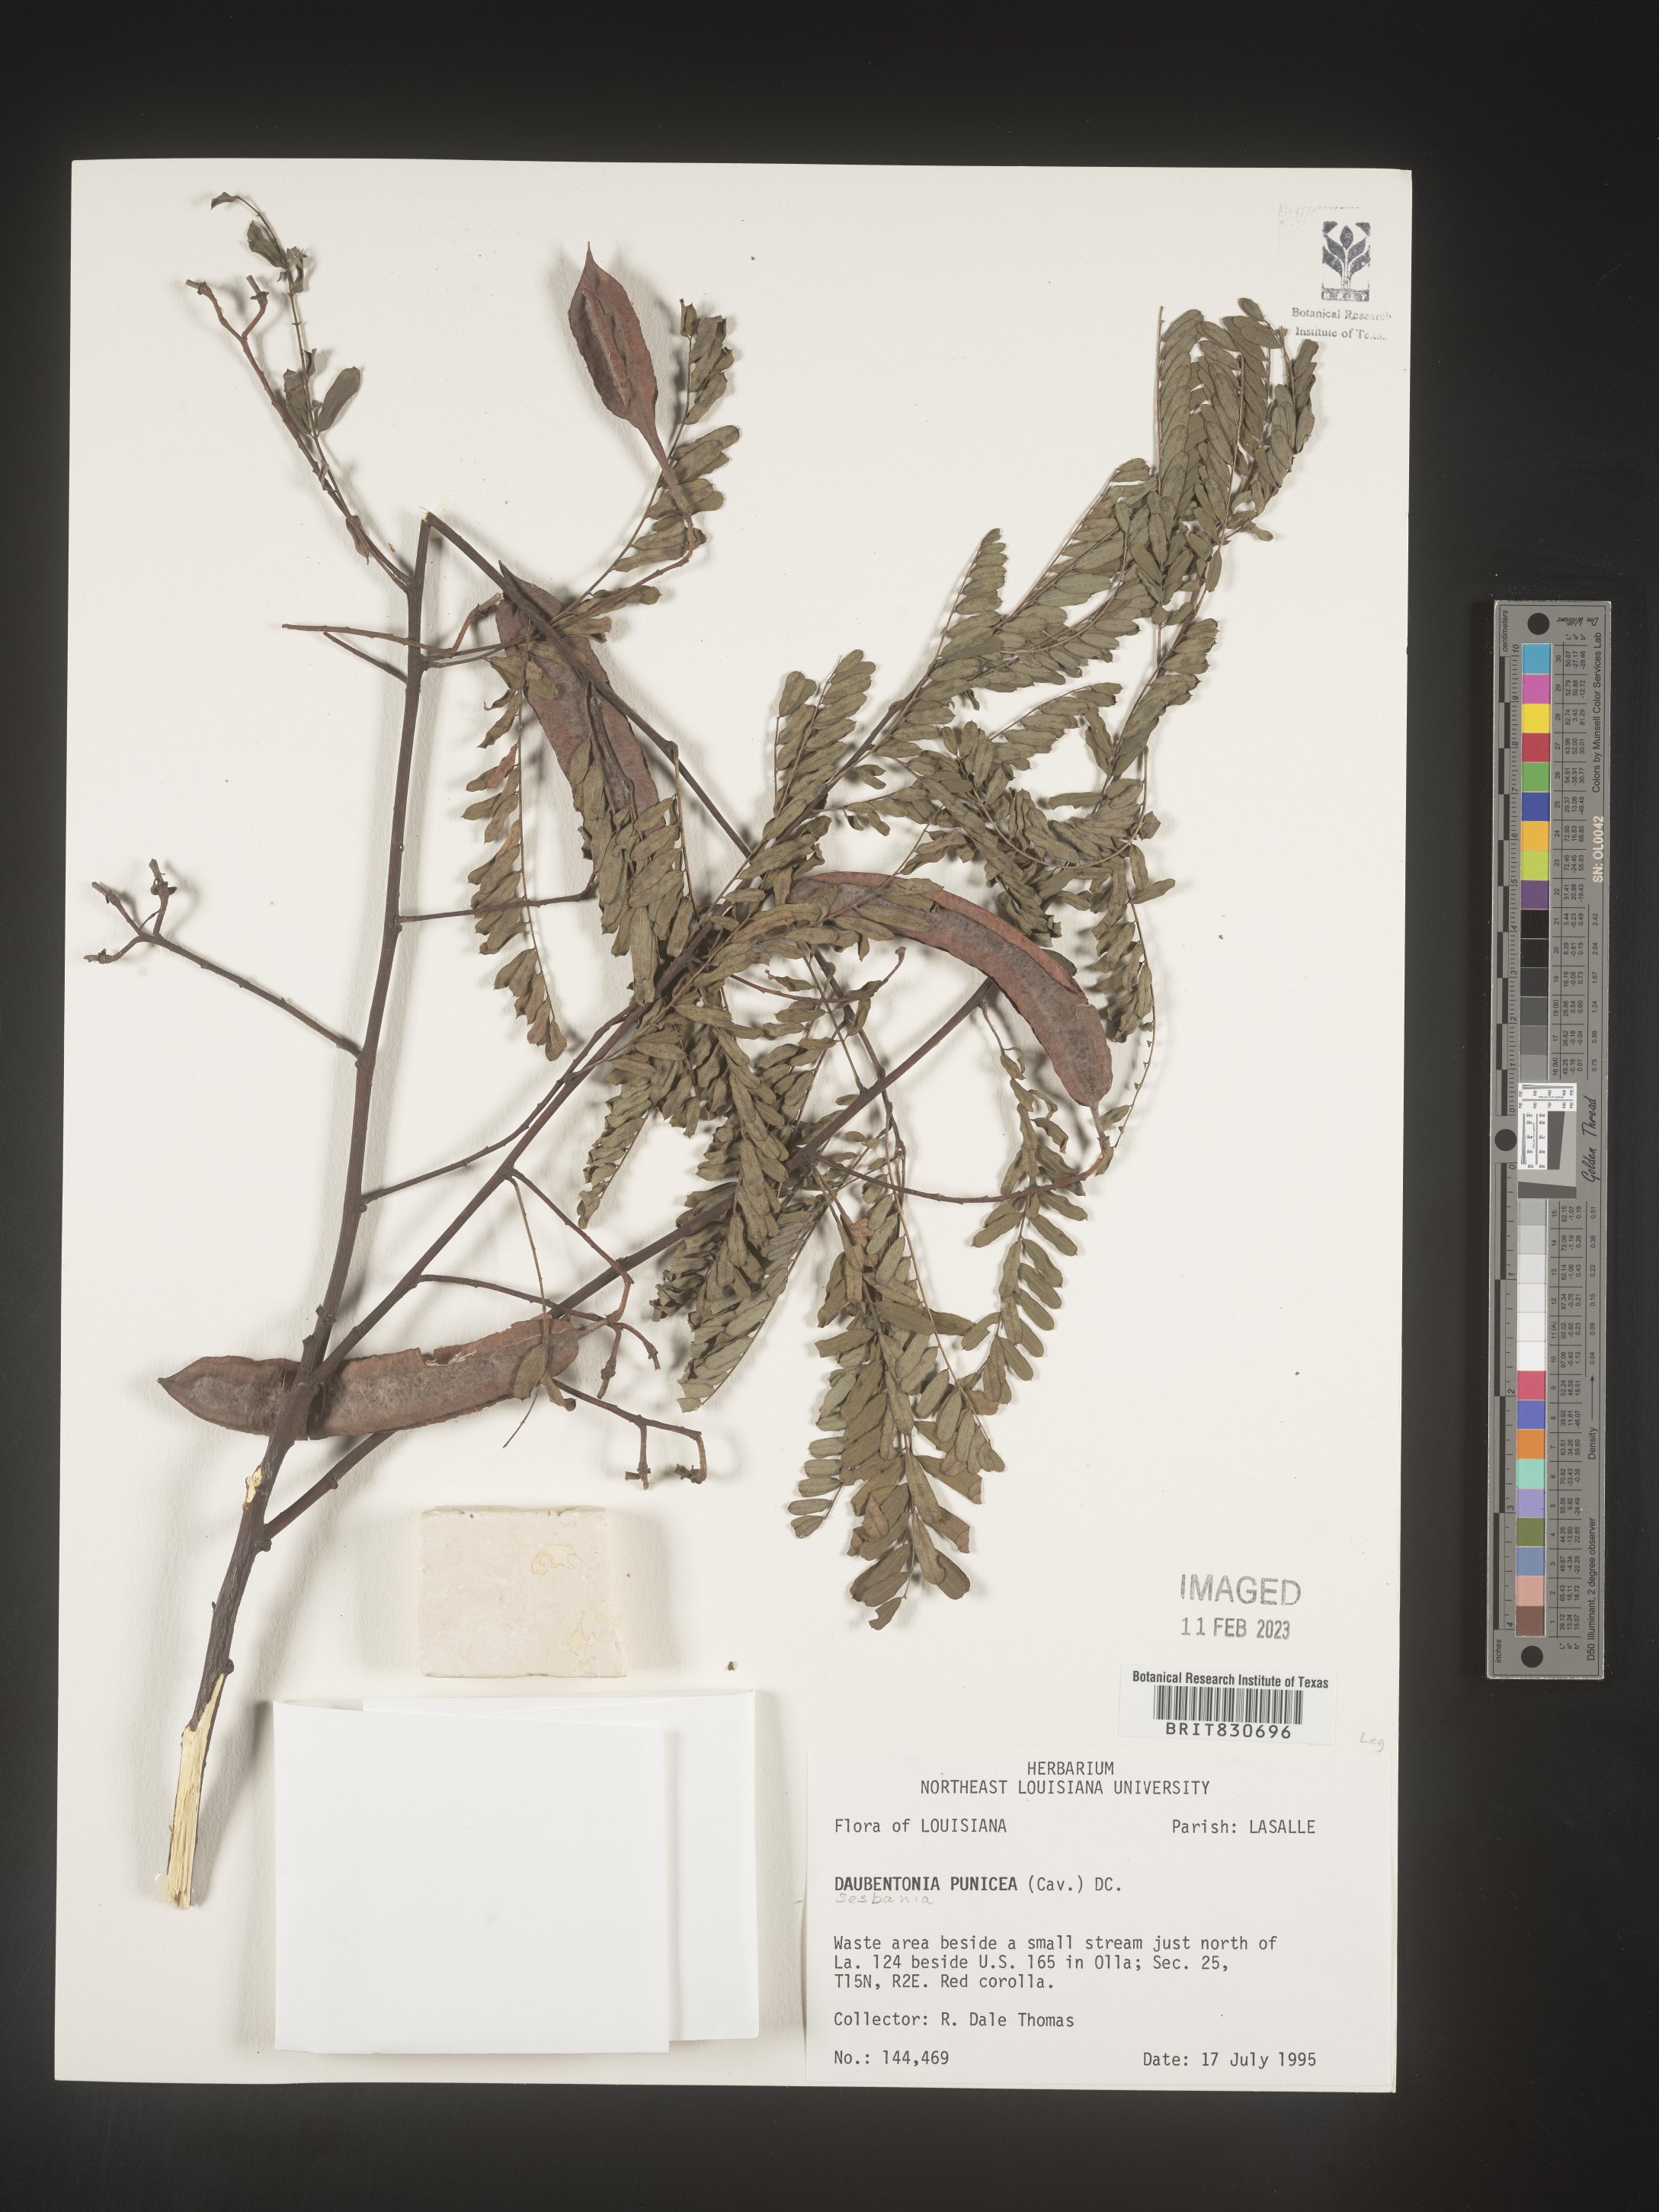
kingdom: Plantae
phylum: Tracheophyta
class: Magnoliopsida
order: Fabales
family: Fabaceae
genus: Sesbania
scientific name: Sesbania punicea
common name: Rattlebox
